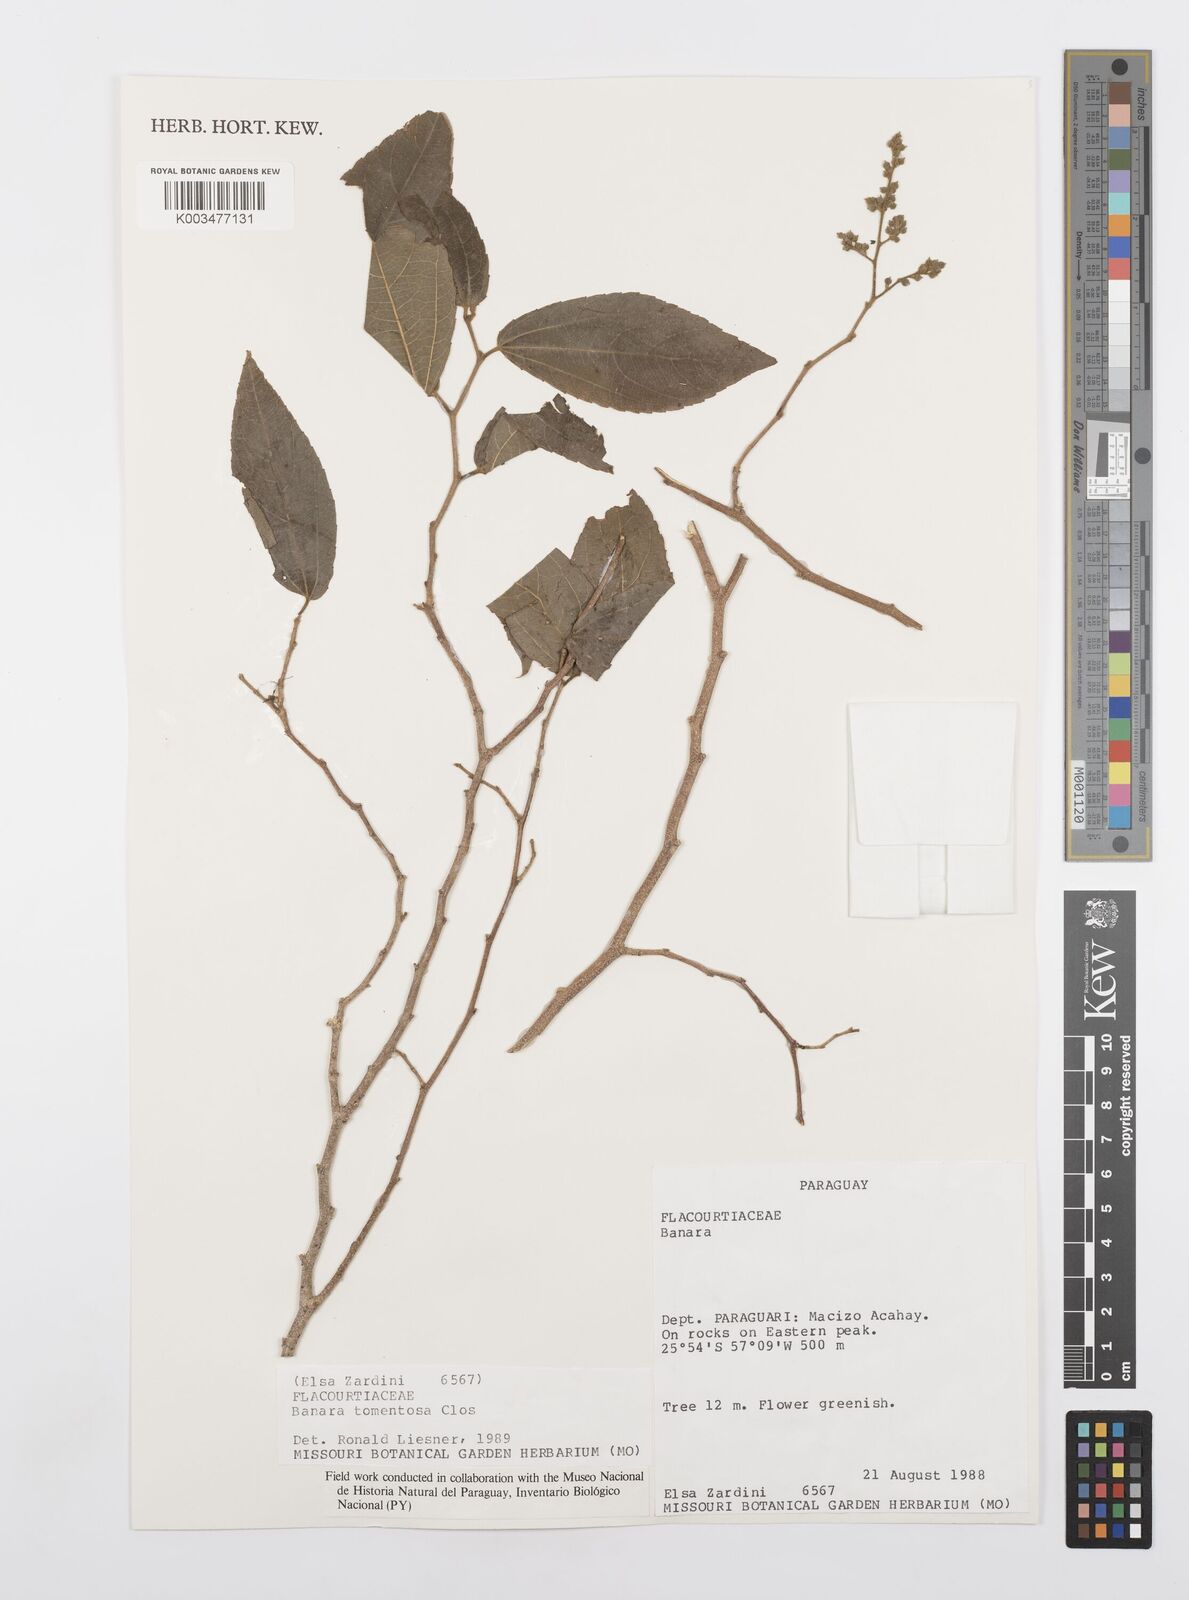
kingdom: Plantae
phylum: Tracheophyta
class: Magnoliopsida
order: Malpighiales
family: Salicaceae
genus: Banara
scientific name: Banara tomentosa
